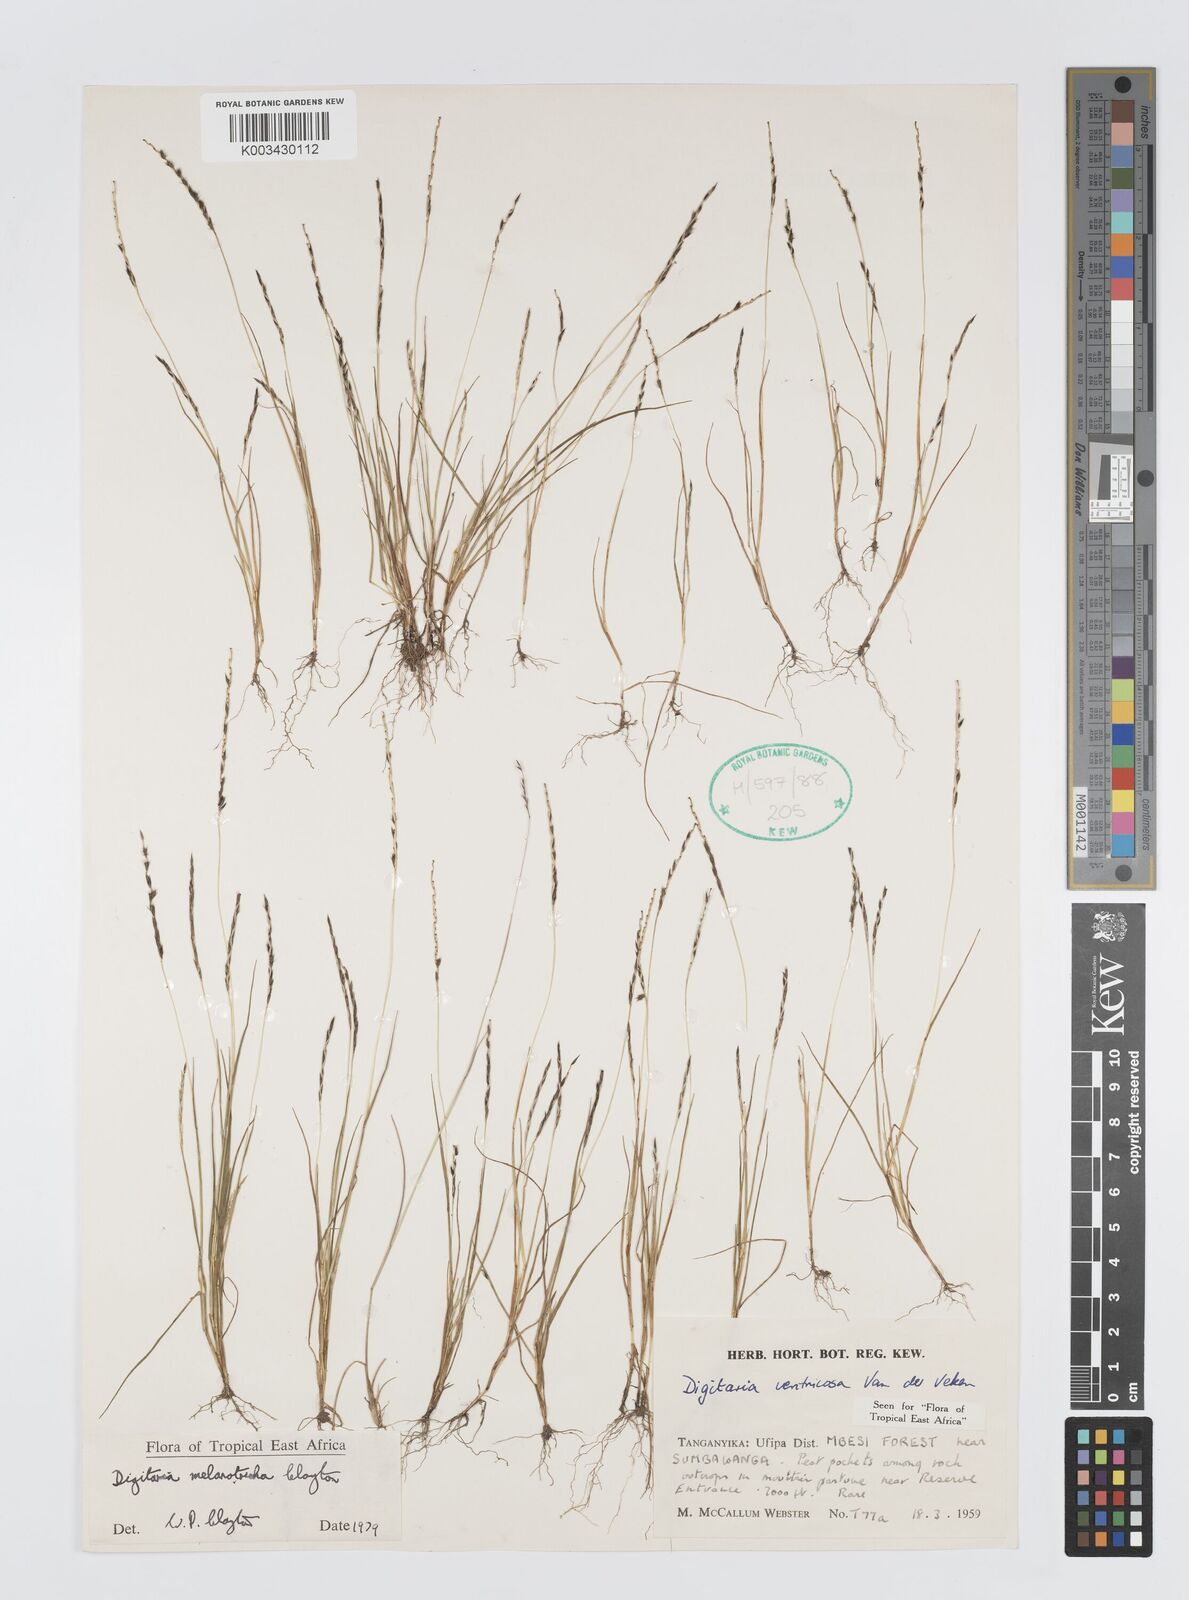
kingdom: Plantae
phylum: Tracheophyta
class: Liliopsida
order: Poales
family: Poaceae
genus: Digitaria
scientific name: Digitaria melanotricha
